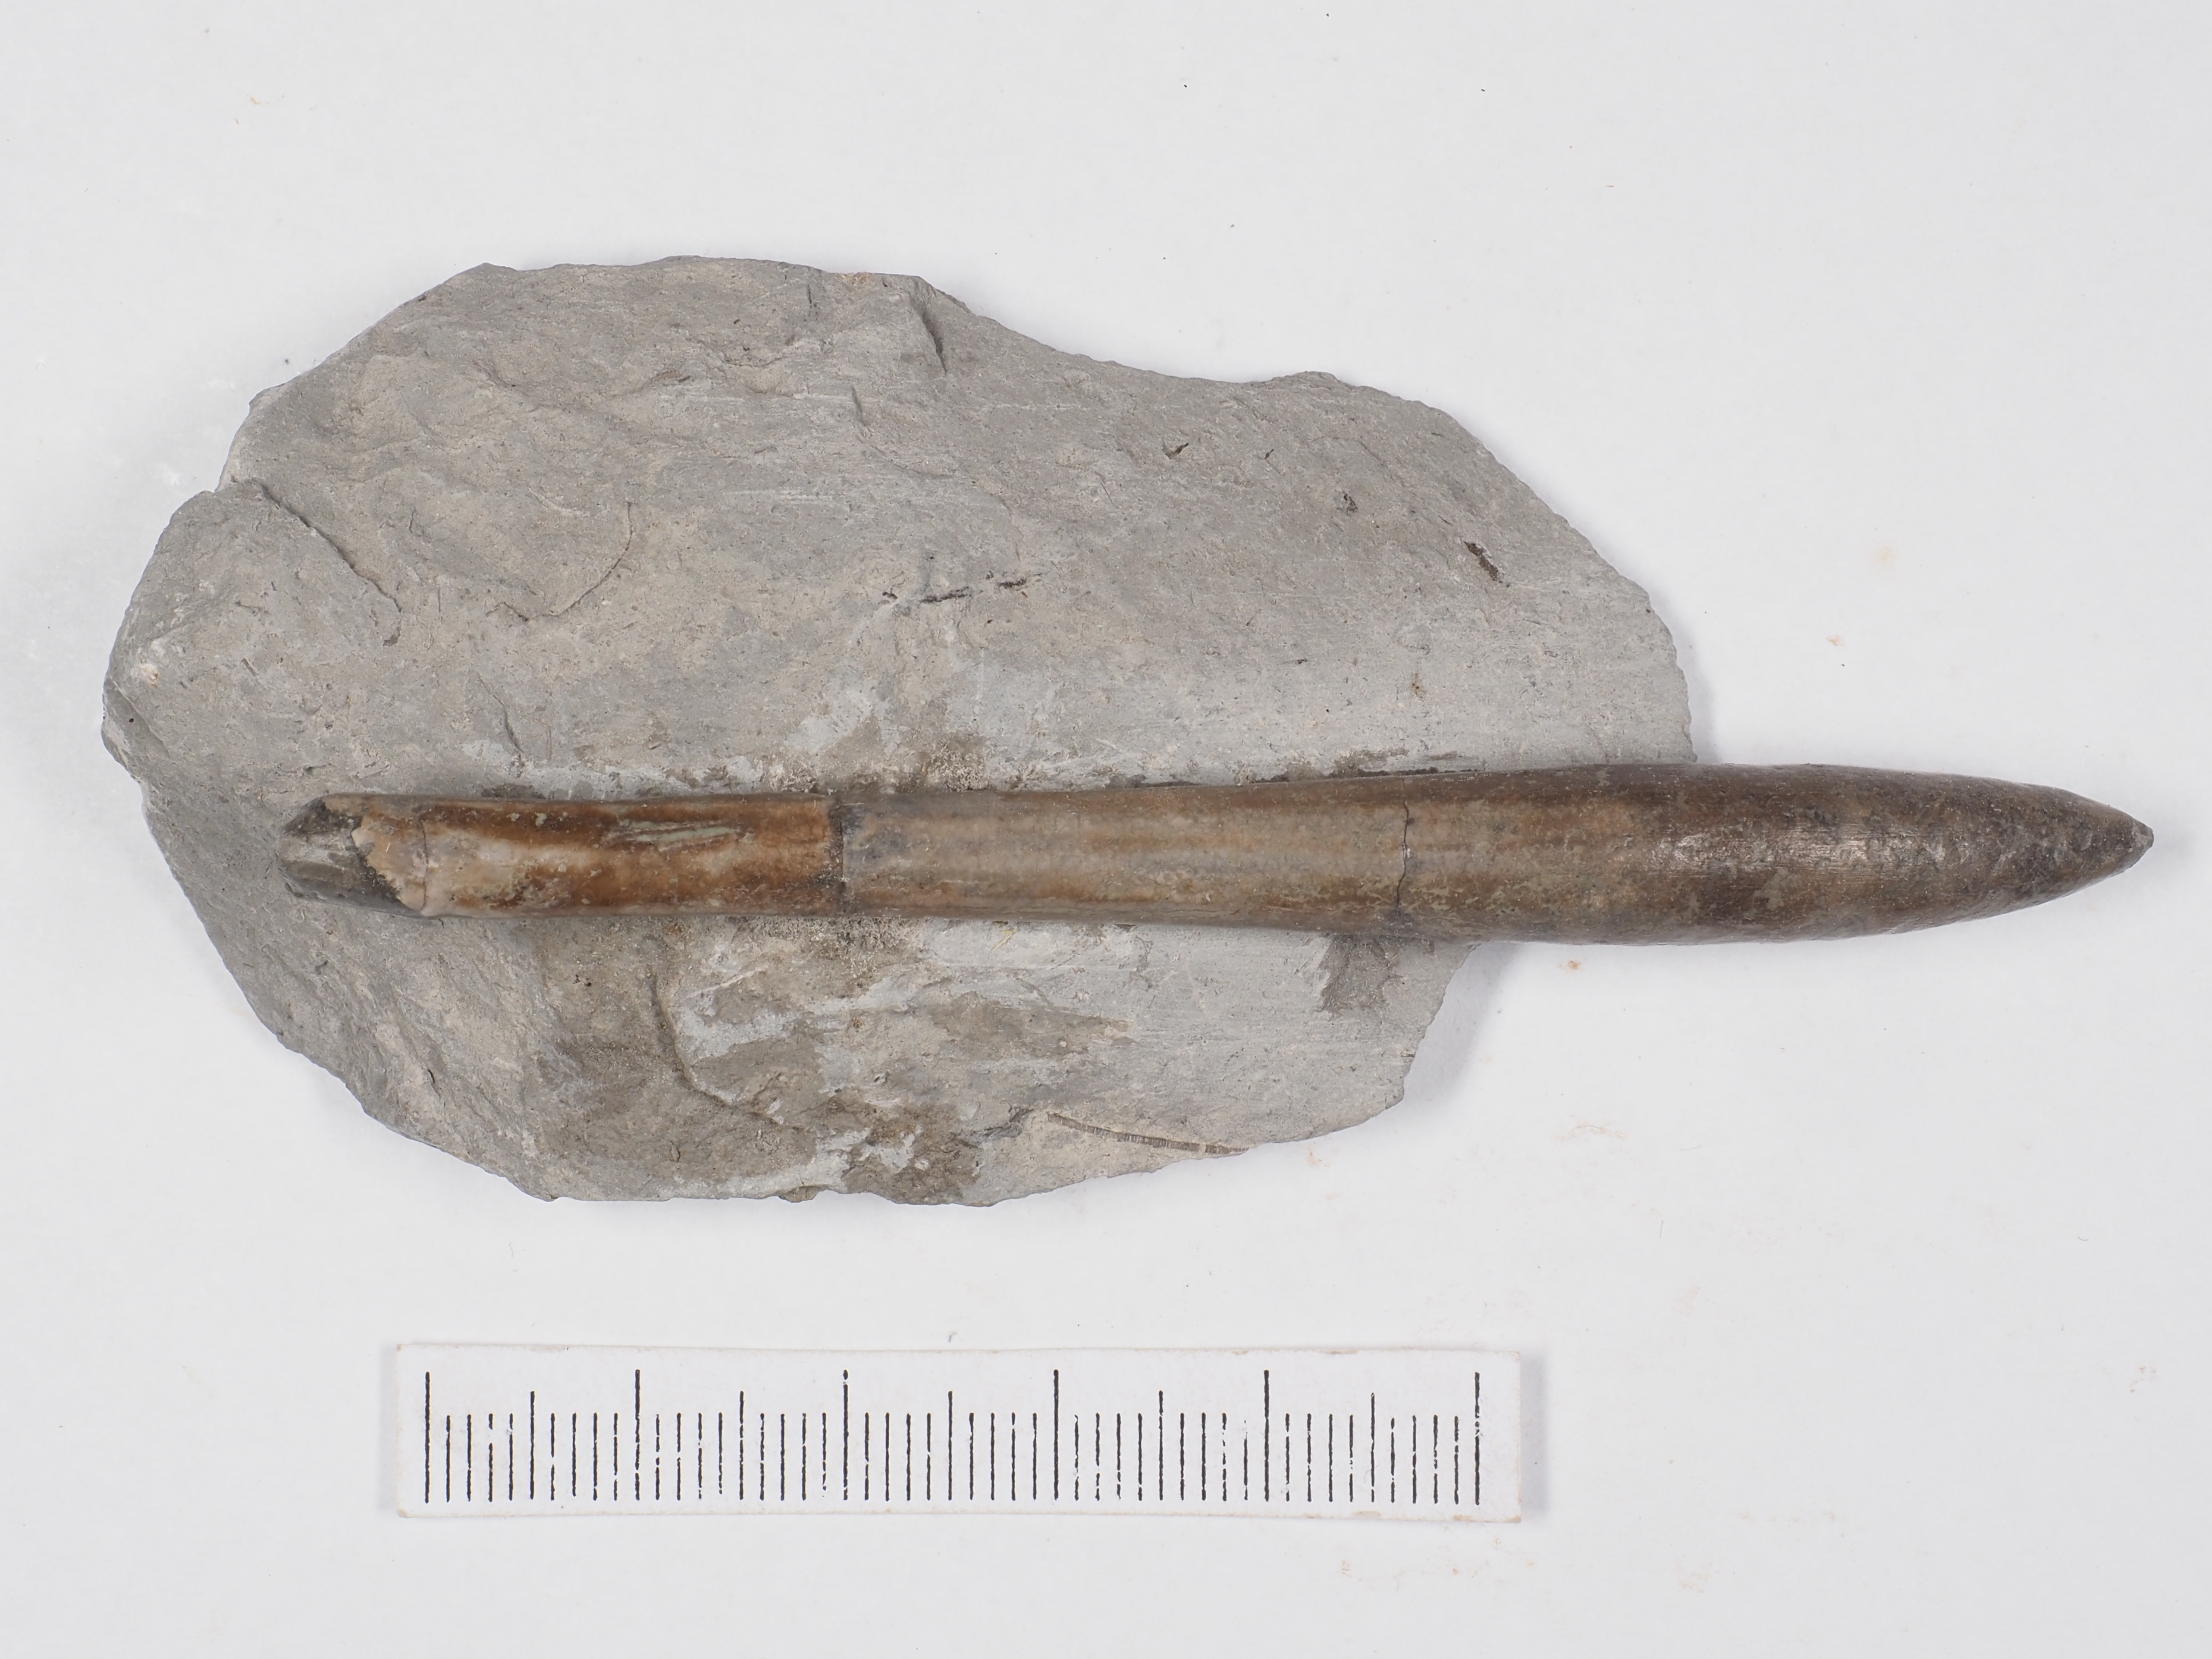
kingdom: Animalia
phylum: Mollusca
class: Cephalopoda
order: Belemnitida
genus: Subhastites
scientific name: Subhastites pseudoclavatus
